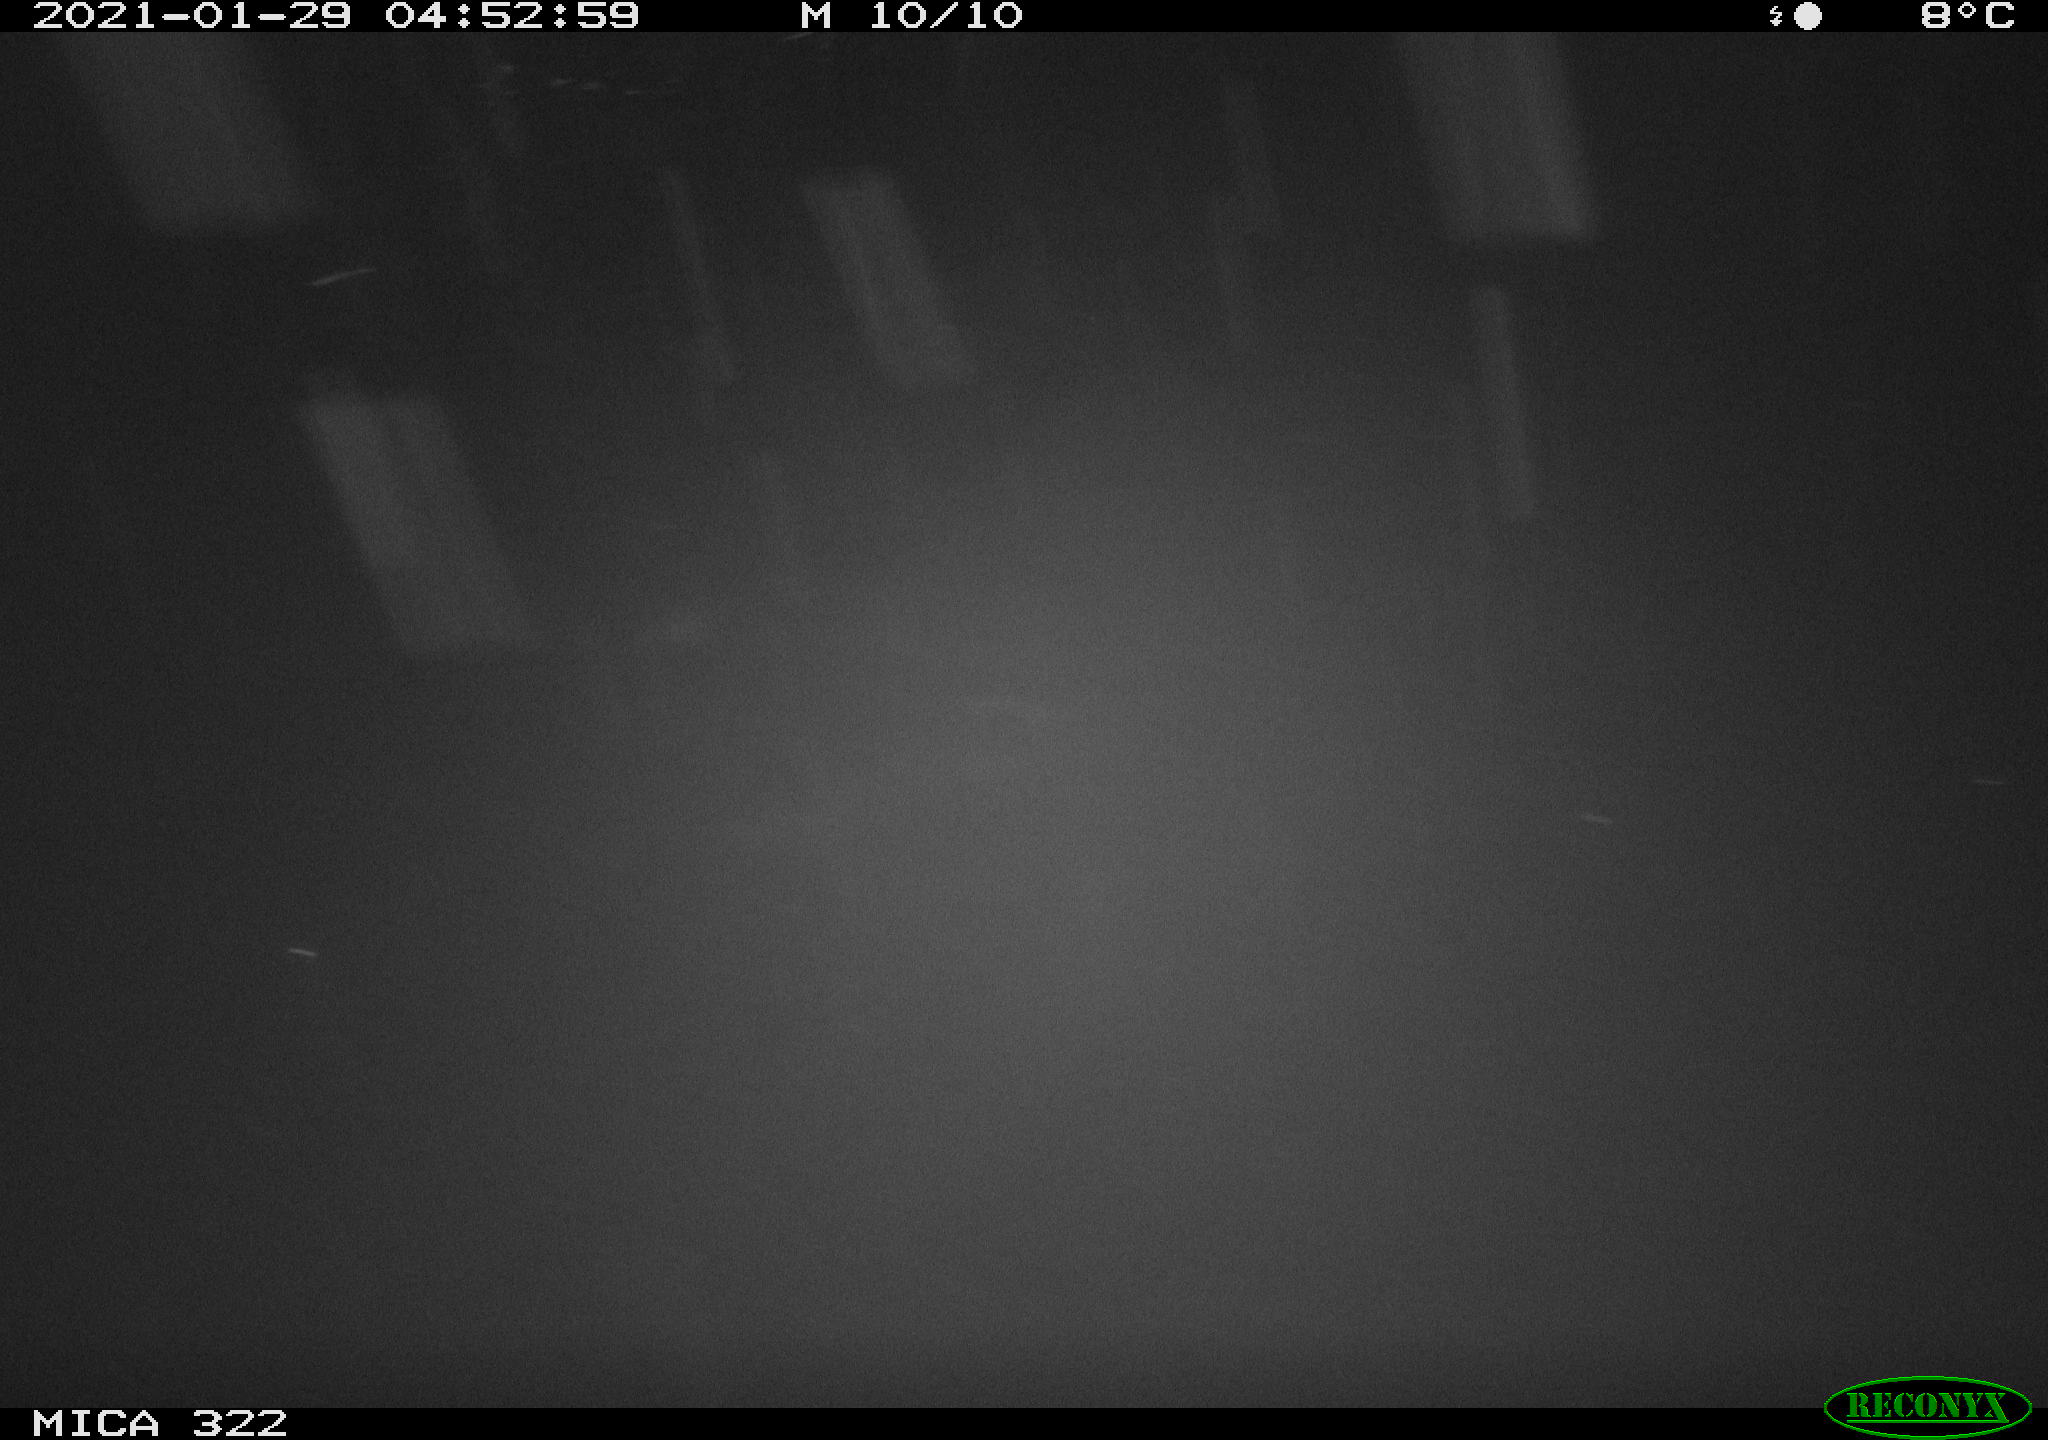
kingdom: Animalia
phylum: Chordata
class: Mammalia
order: Rodentia
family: Muridae
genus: Rattus
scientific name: Rattus norvegicus
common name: Brown rat
